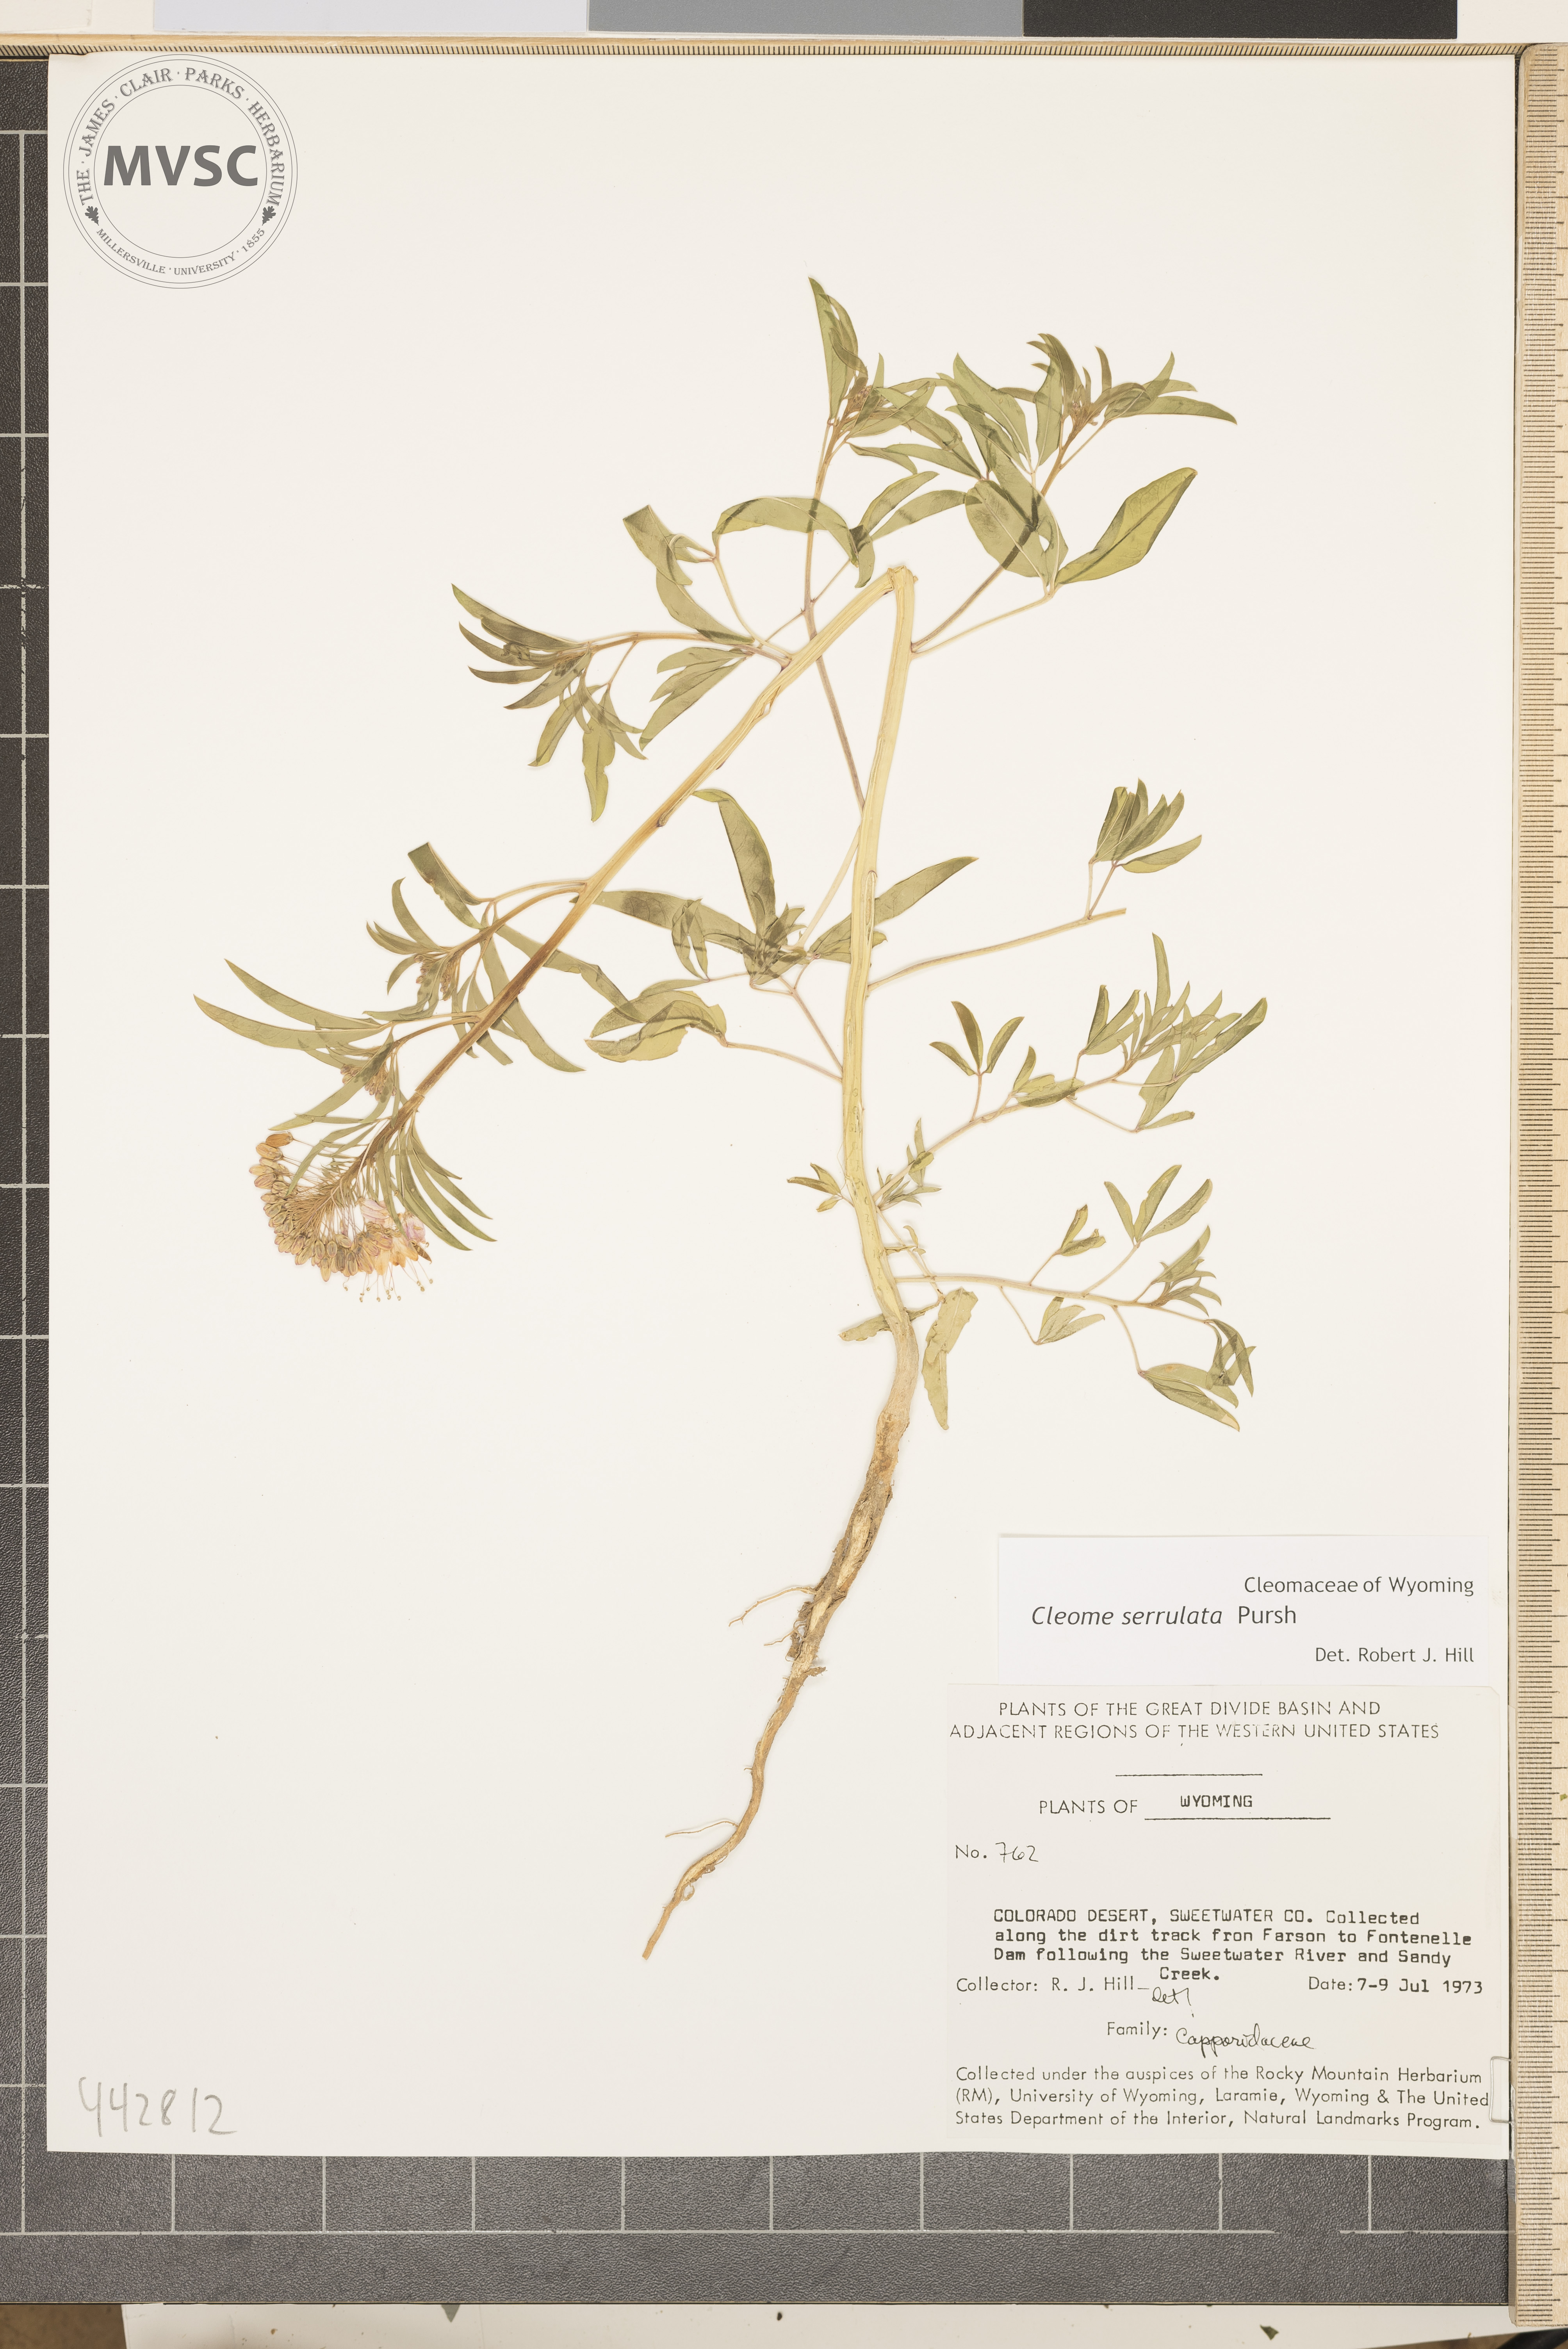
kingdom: Plantae
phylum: Tracheophyta
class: Magnoliopsida
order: Brassicales
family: Cleomaceae
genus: Cleomella
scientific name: Cleomella serrulata
